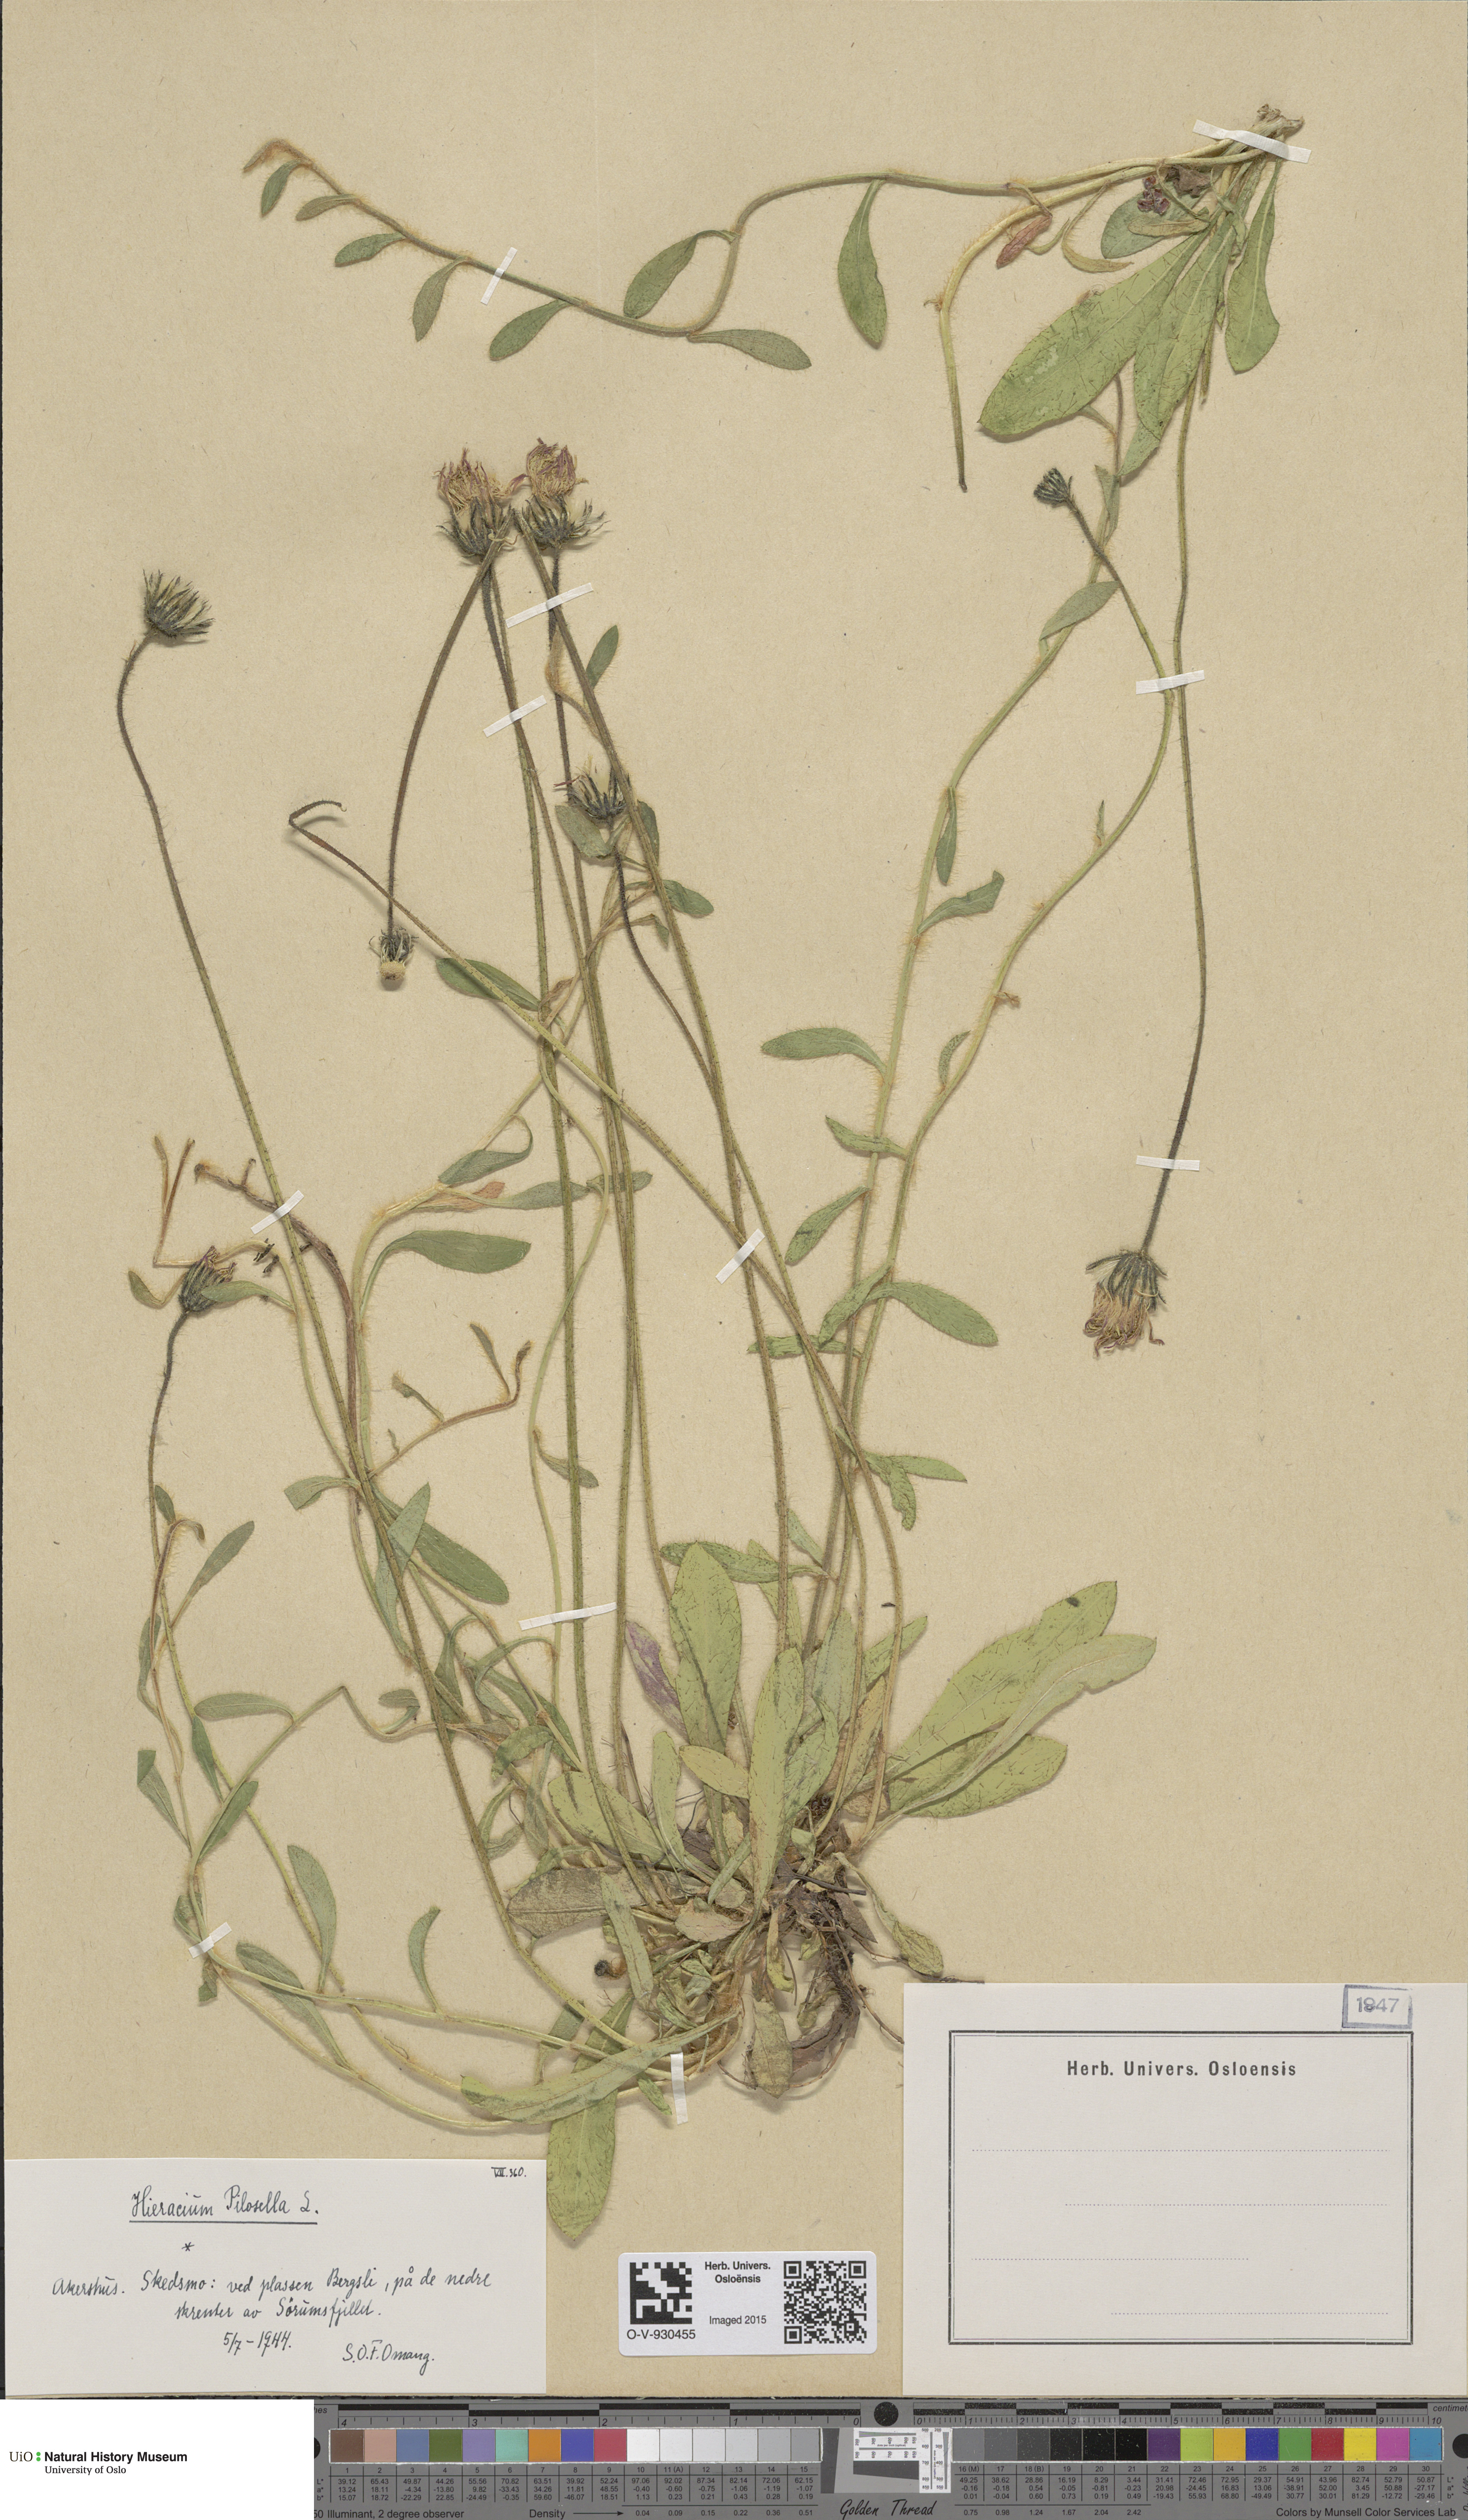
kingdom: Plantae
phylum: Tracheophyta
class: Magnoliopsida
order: Asterales
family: Asteraceae
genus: Pilosella
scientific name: Pilosella officinarum
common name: Mouse-ear hawkweed
